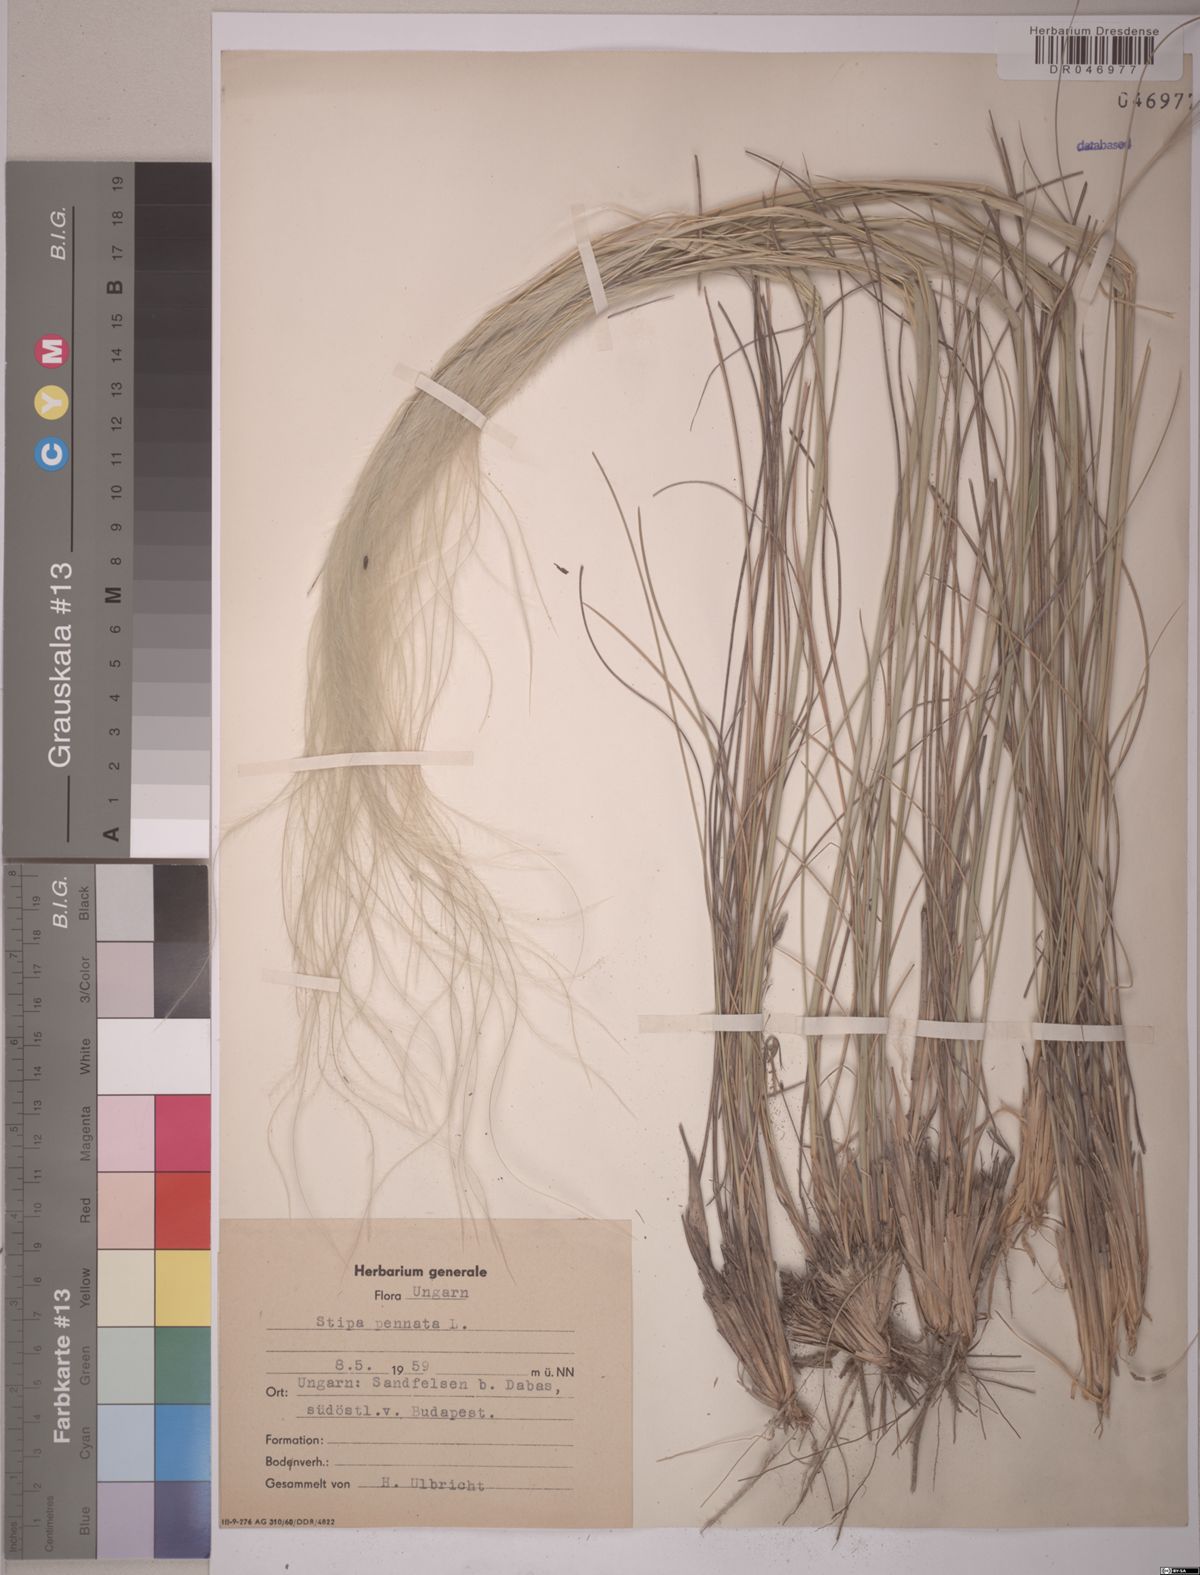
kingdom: Plantae
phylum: Tracheophyta
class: Liliopsida
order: Poales
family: Poaceae
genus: Stipa
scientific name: Stipa pennata
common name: European feather grass
